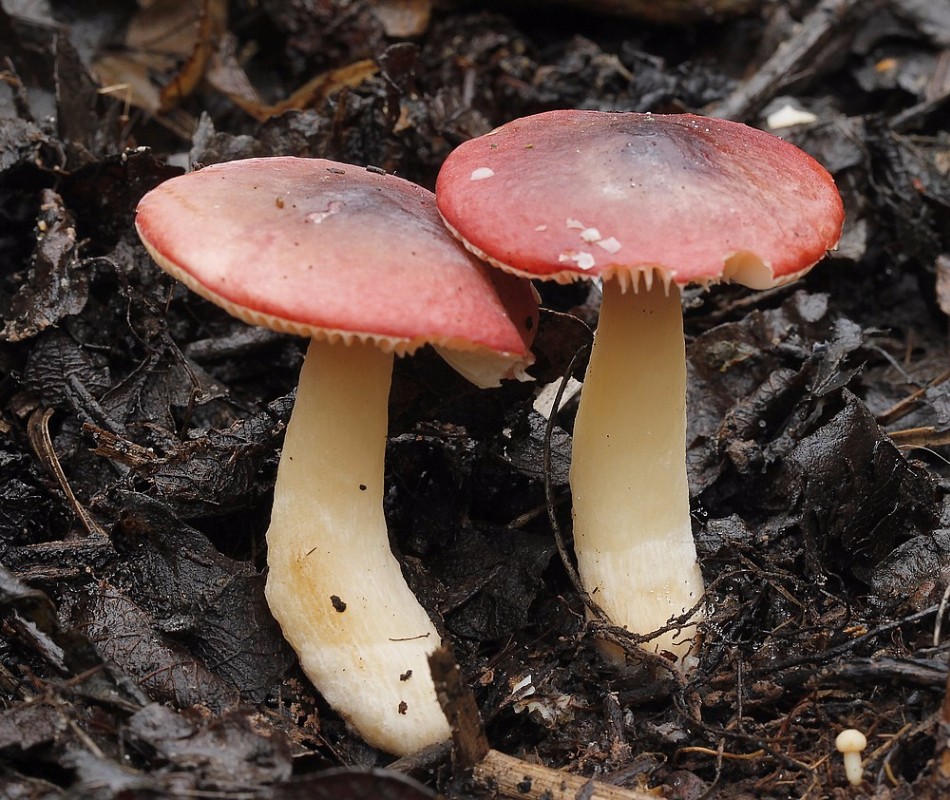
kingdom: Fungi
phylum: Basidiomycota
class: Agaricomycetes
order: Russulales
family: Russulaceae
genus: Russula
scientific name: Russula laccata
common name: klit-skørhat
